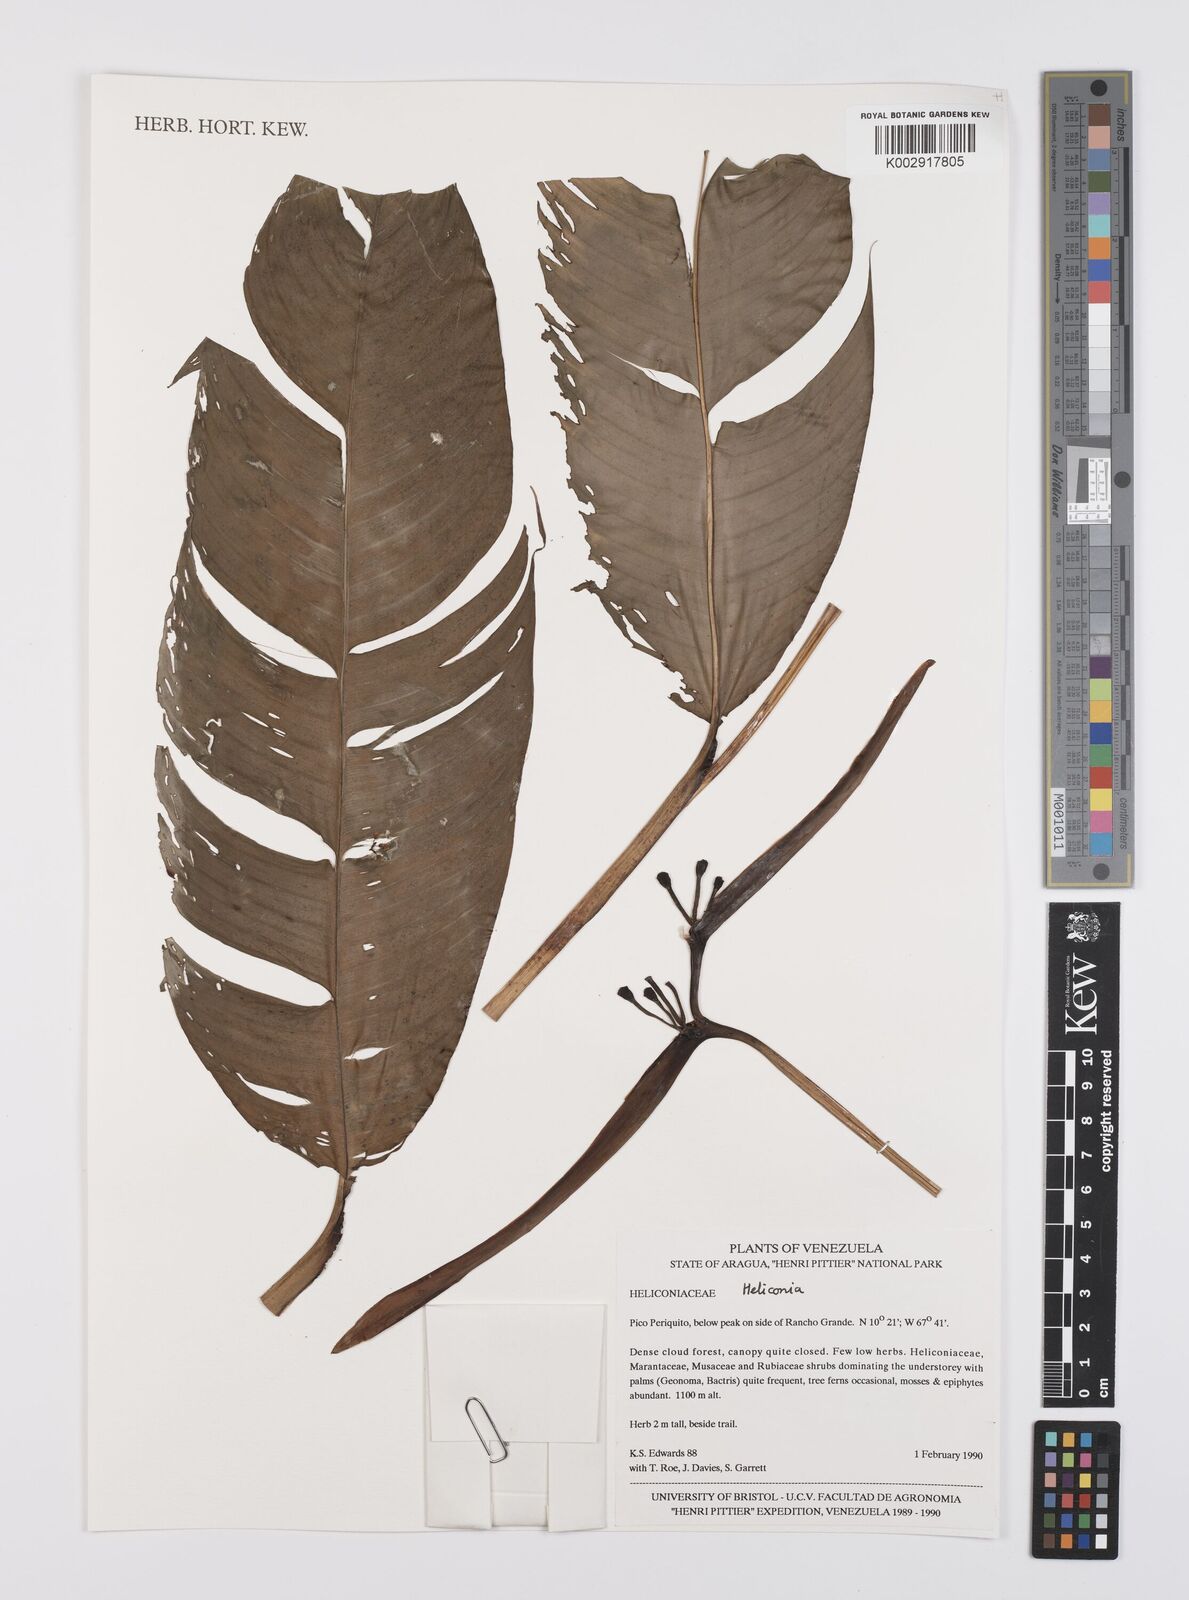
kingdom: Plantae
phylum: Tracheophyta
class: Liliopsida
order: Zingiberales
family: Heliconiaceae
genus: Heliconia
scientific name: Heliconia
